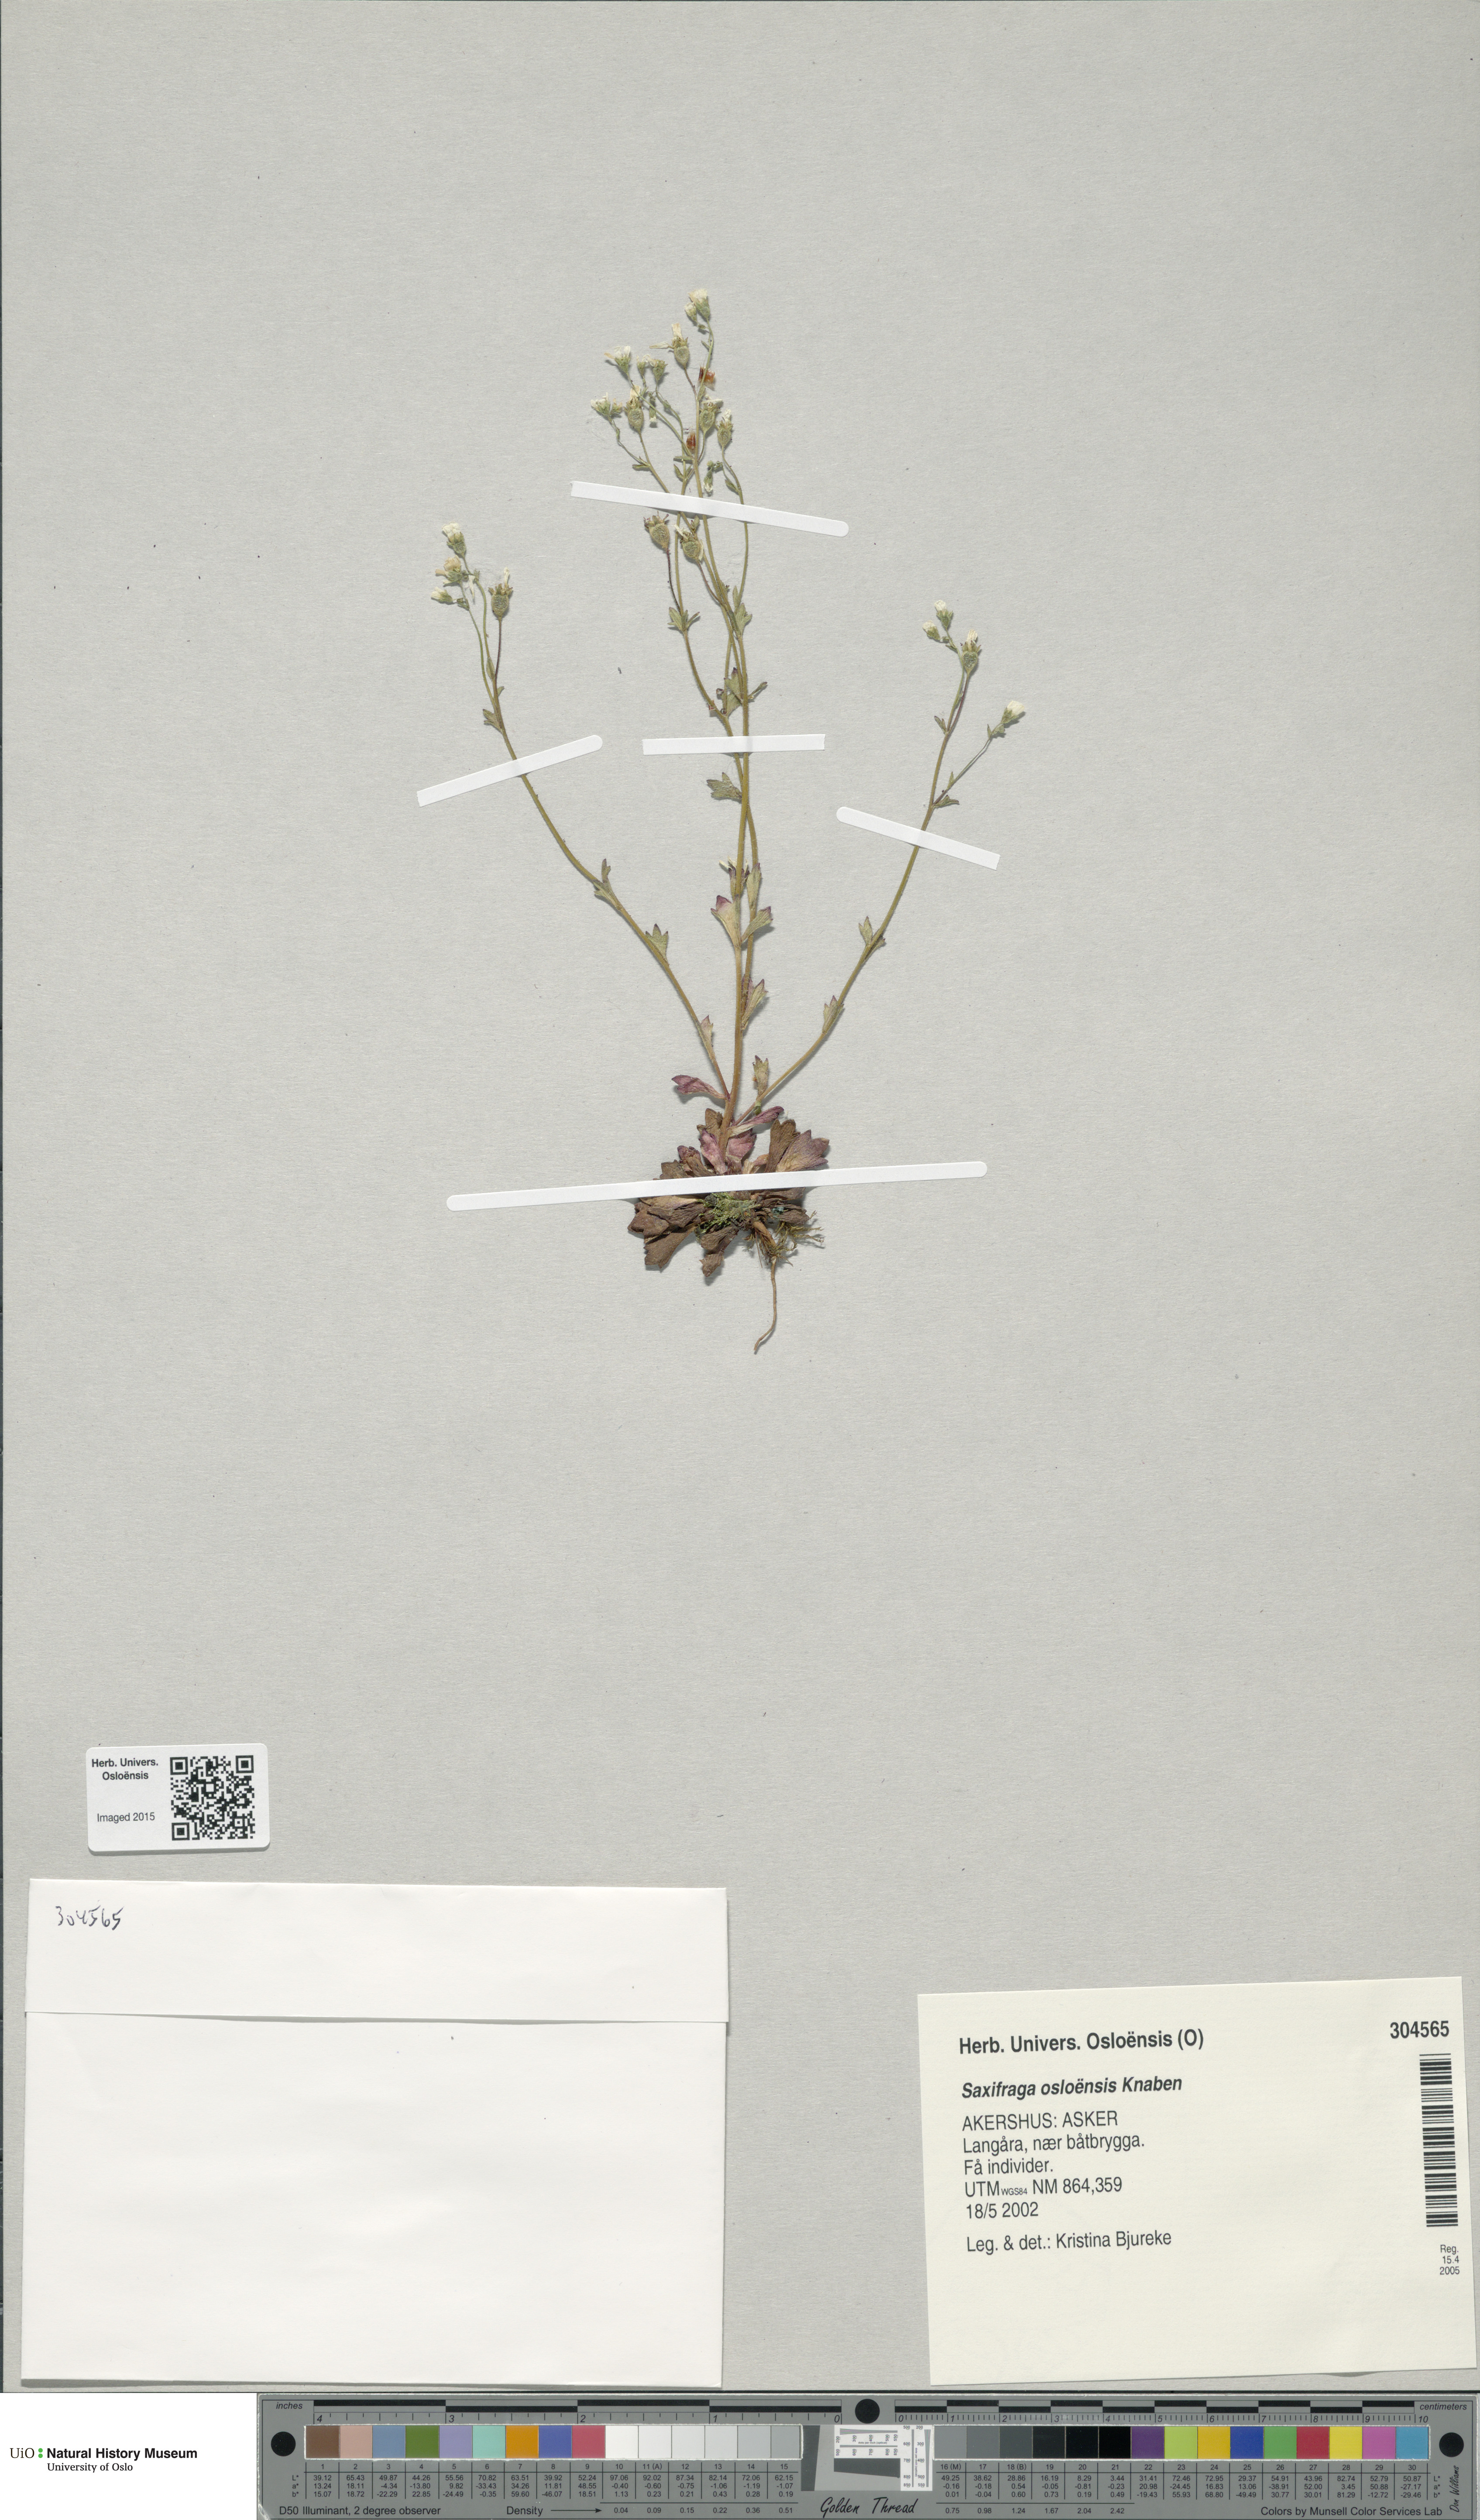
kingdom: Plantae
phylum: Tracheophyta
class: Magnoliopsida
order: Saxifragales
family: Saxifragaceae
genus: Saxifraga
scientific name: Saxifraga osloensis
